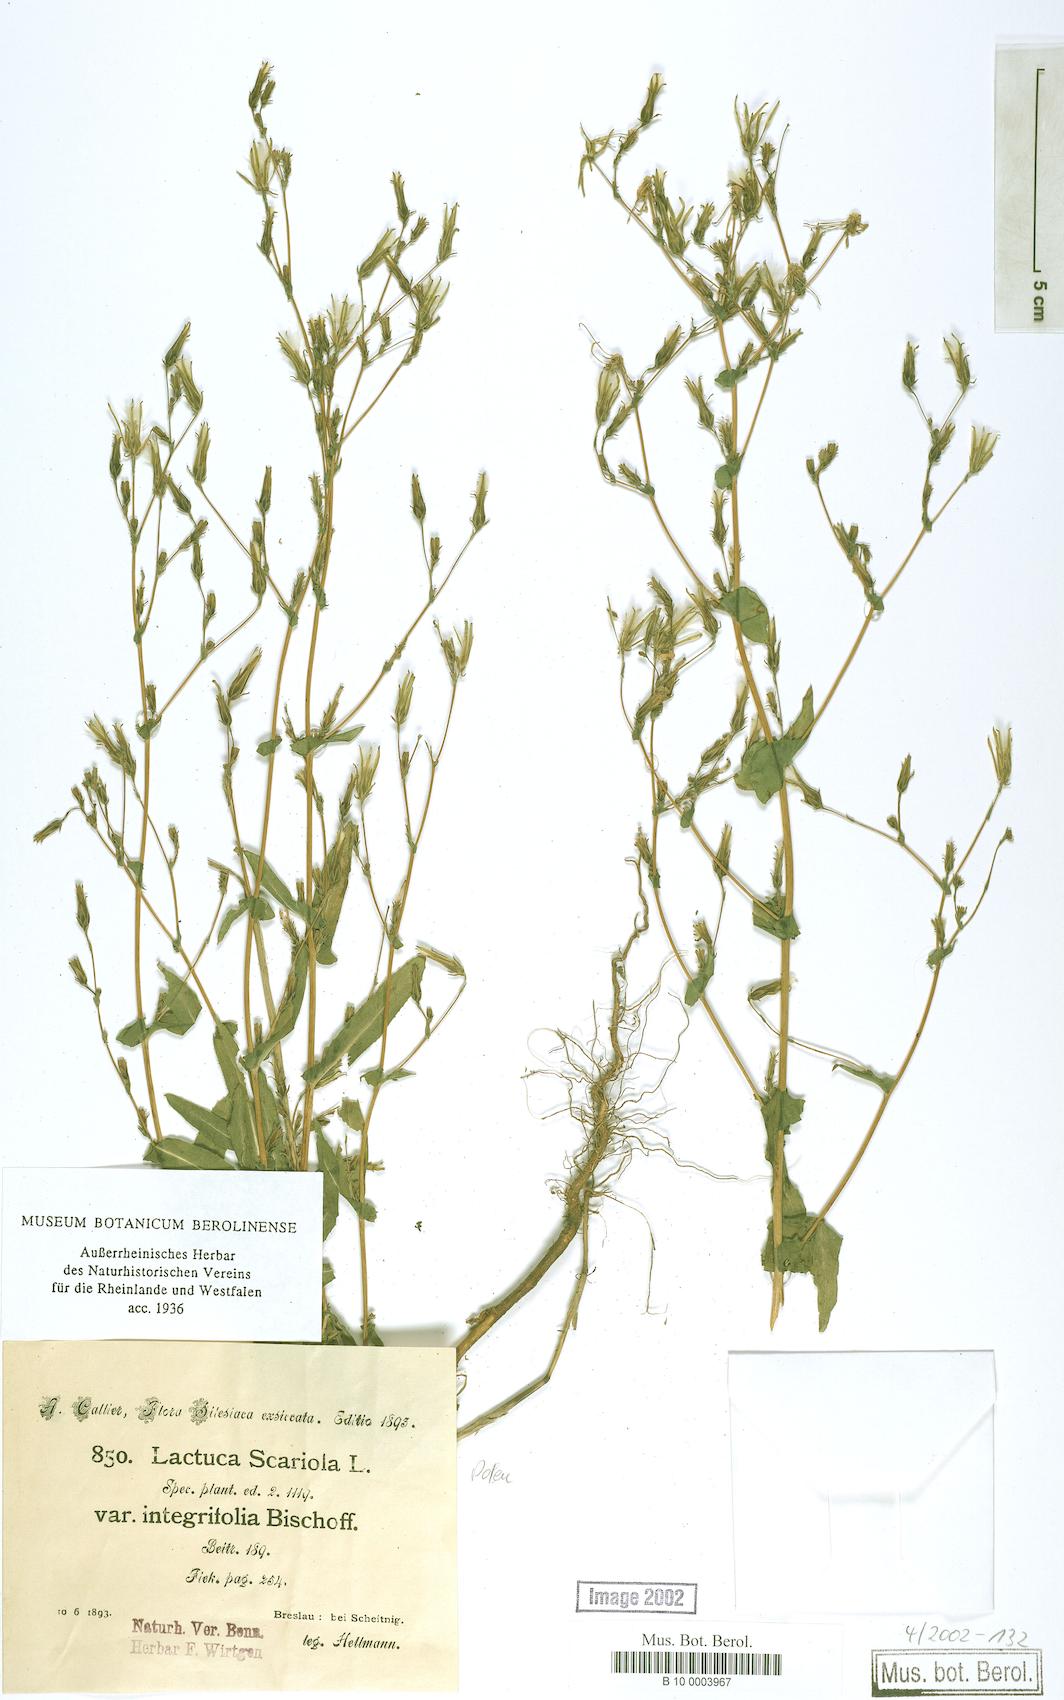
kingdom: Plantae
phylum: Tracheophyta
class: Magnoliopsida
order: Asterales
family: Asteraceae
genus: Lactuca
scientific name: Lactuca serriola
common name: Prickly lettuce
